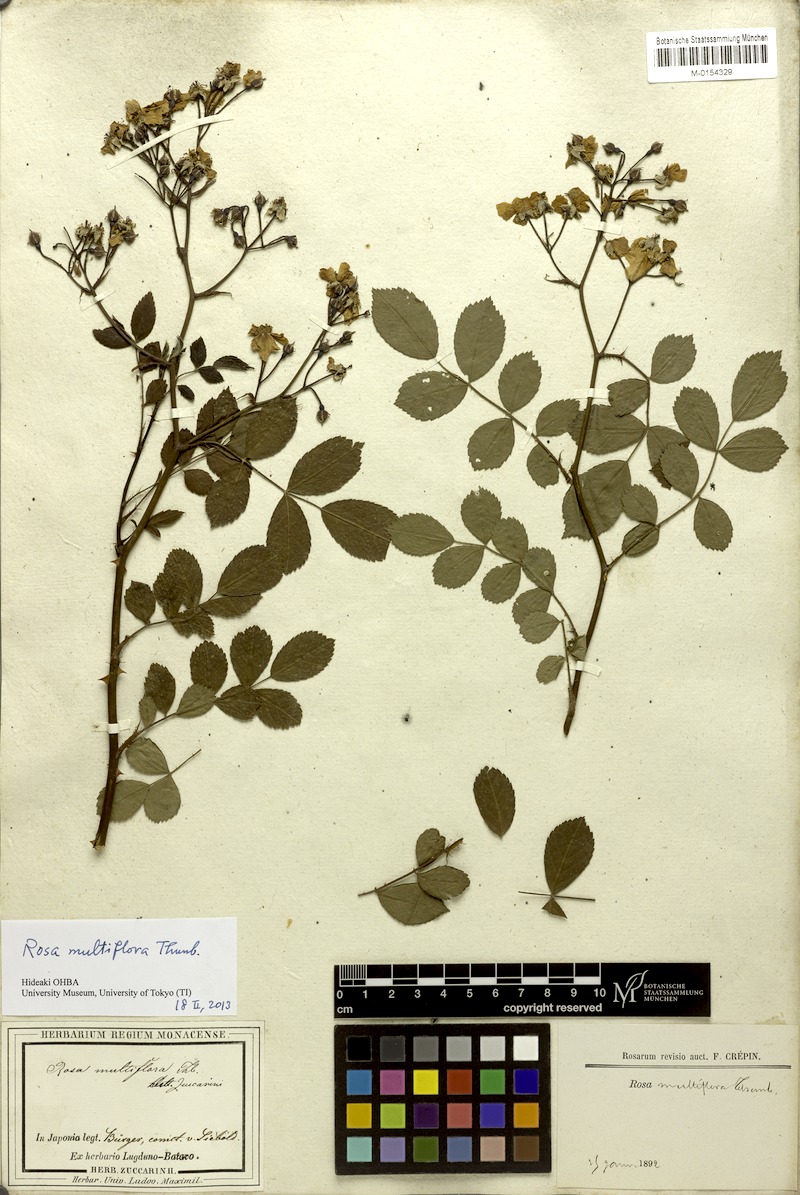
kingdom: Plantae
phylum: Tracheophyta
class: Magnoliopsida
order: Rosales
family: Rosaceae
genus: Rosa
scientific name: Rosa multiflora
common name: Multiflora rose
